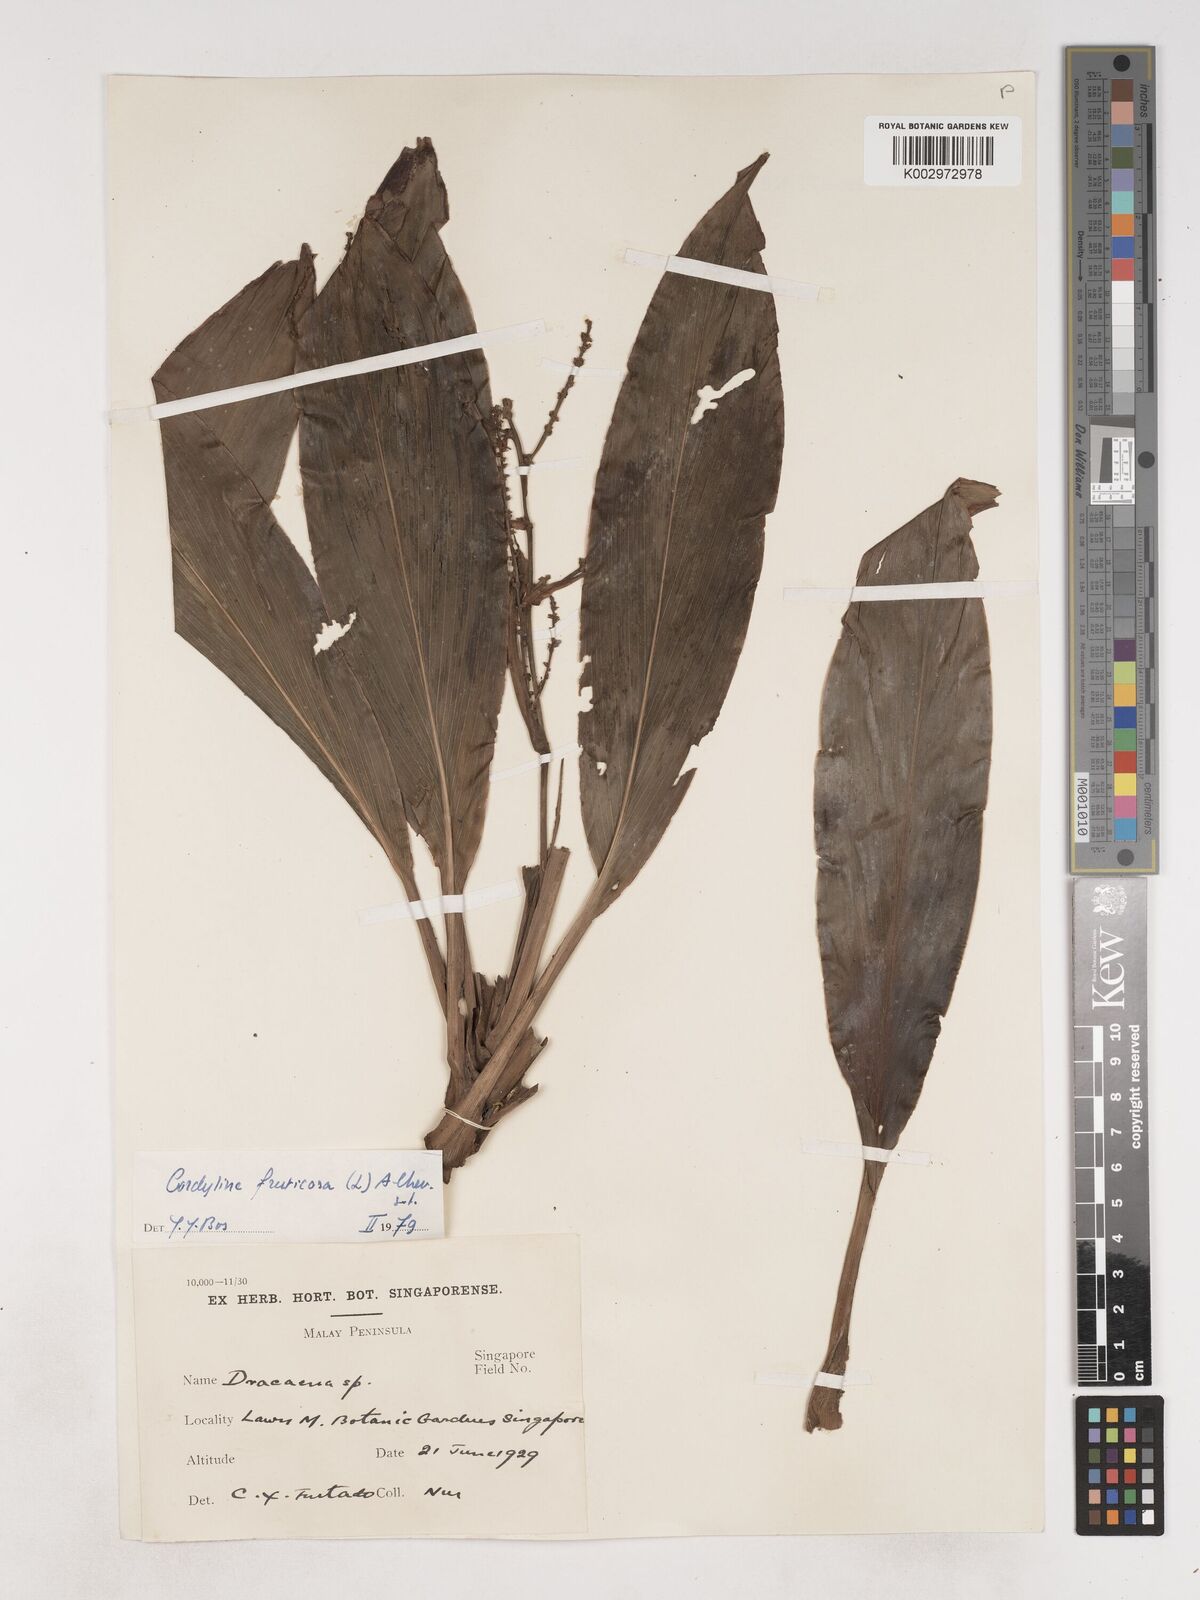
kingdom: Plantae
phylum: Tracheophyta
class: Liliopsida
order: Asparagales
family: Asparagaceae
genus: Cordyline
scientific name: Cordyline fruticosa
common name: Good-luck-plant
